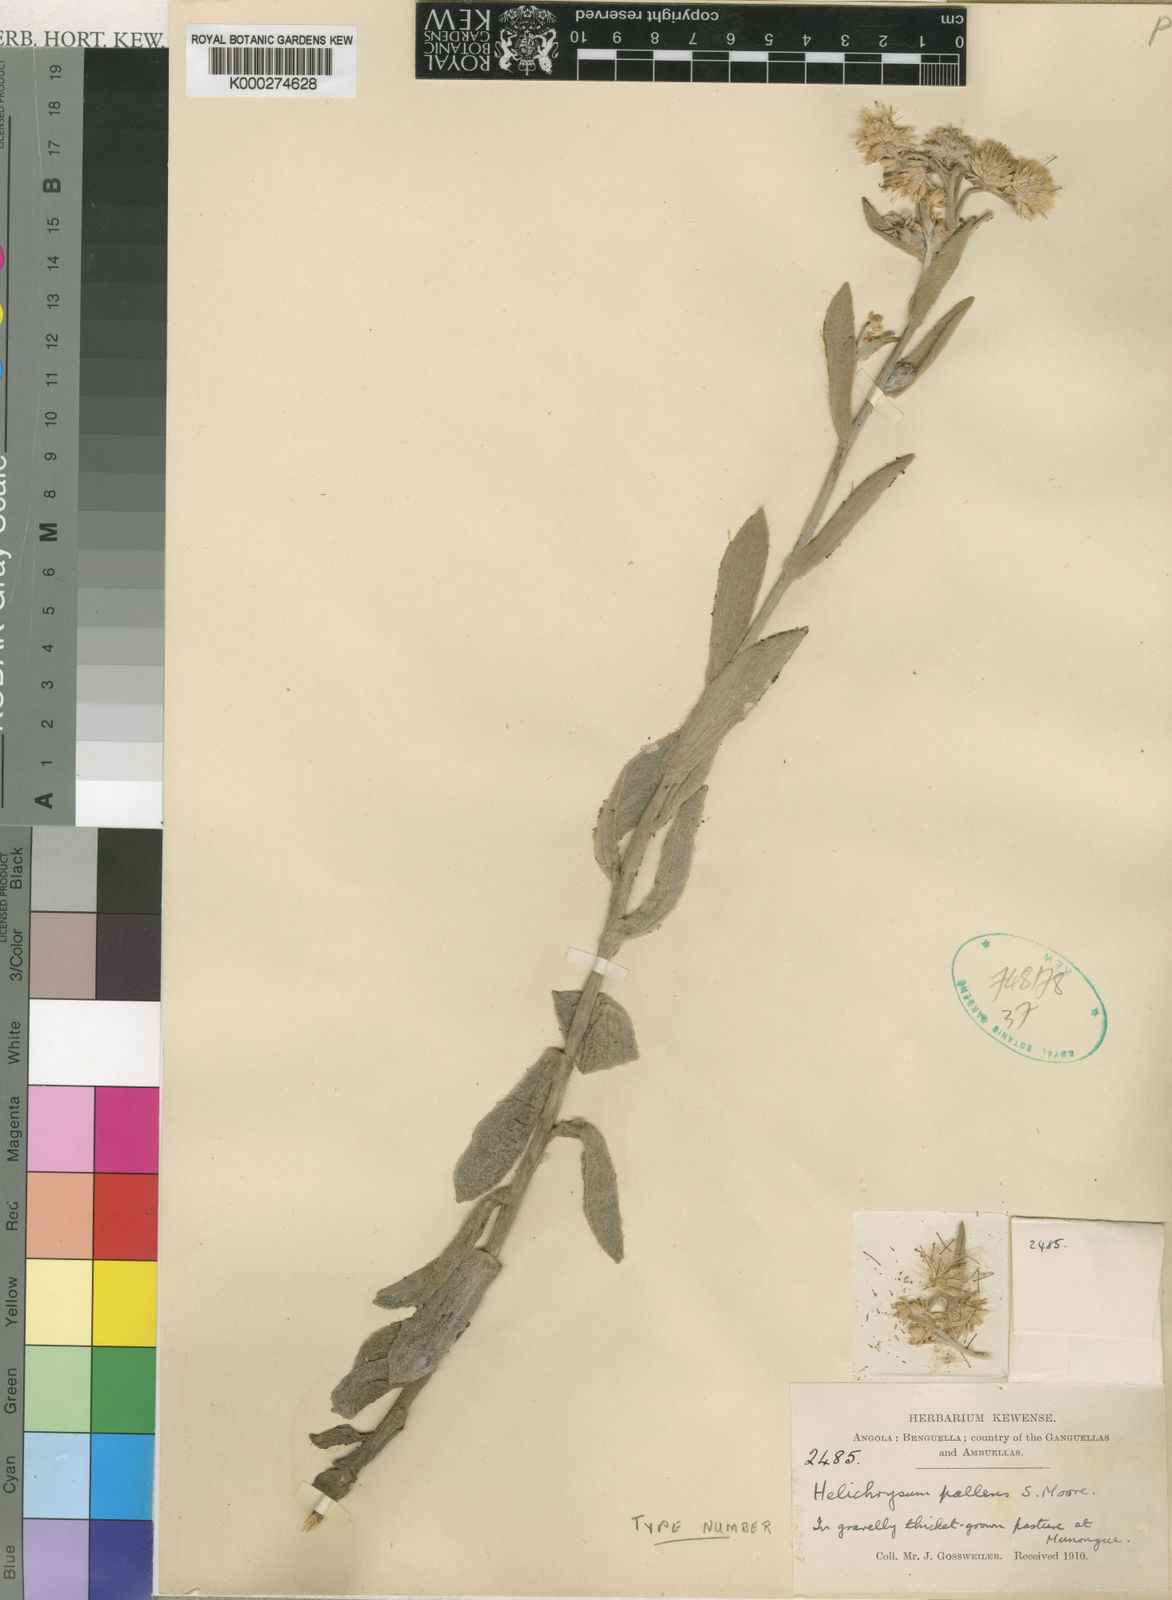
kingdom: Plantae
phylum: Tracheophyta
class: Magnoliopsida
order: Asterales
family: Asteraceae
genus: Helichrysum
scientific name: Helichrysum quartinianum
